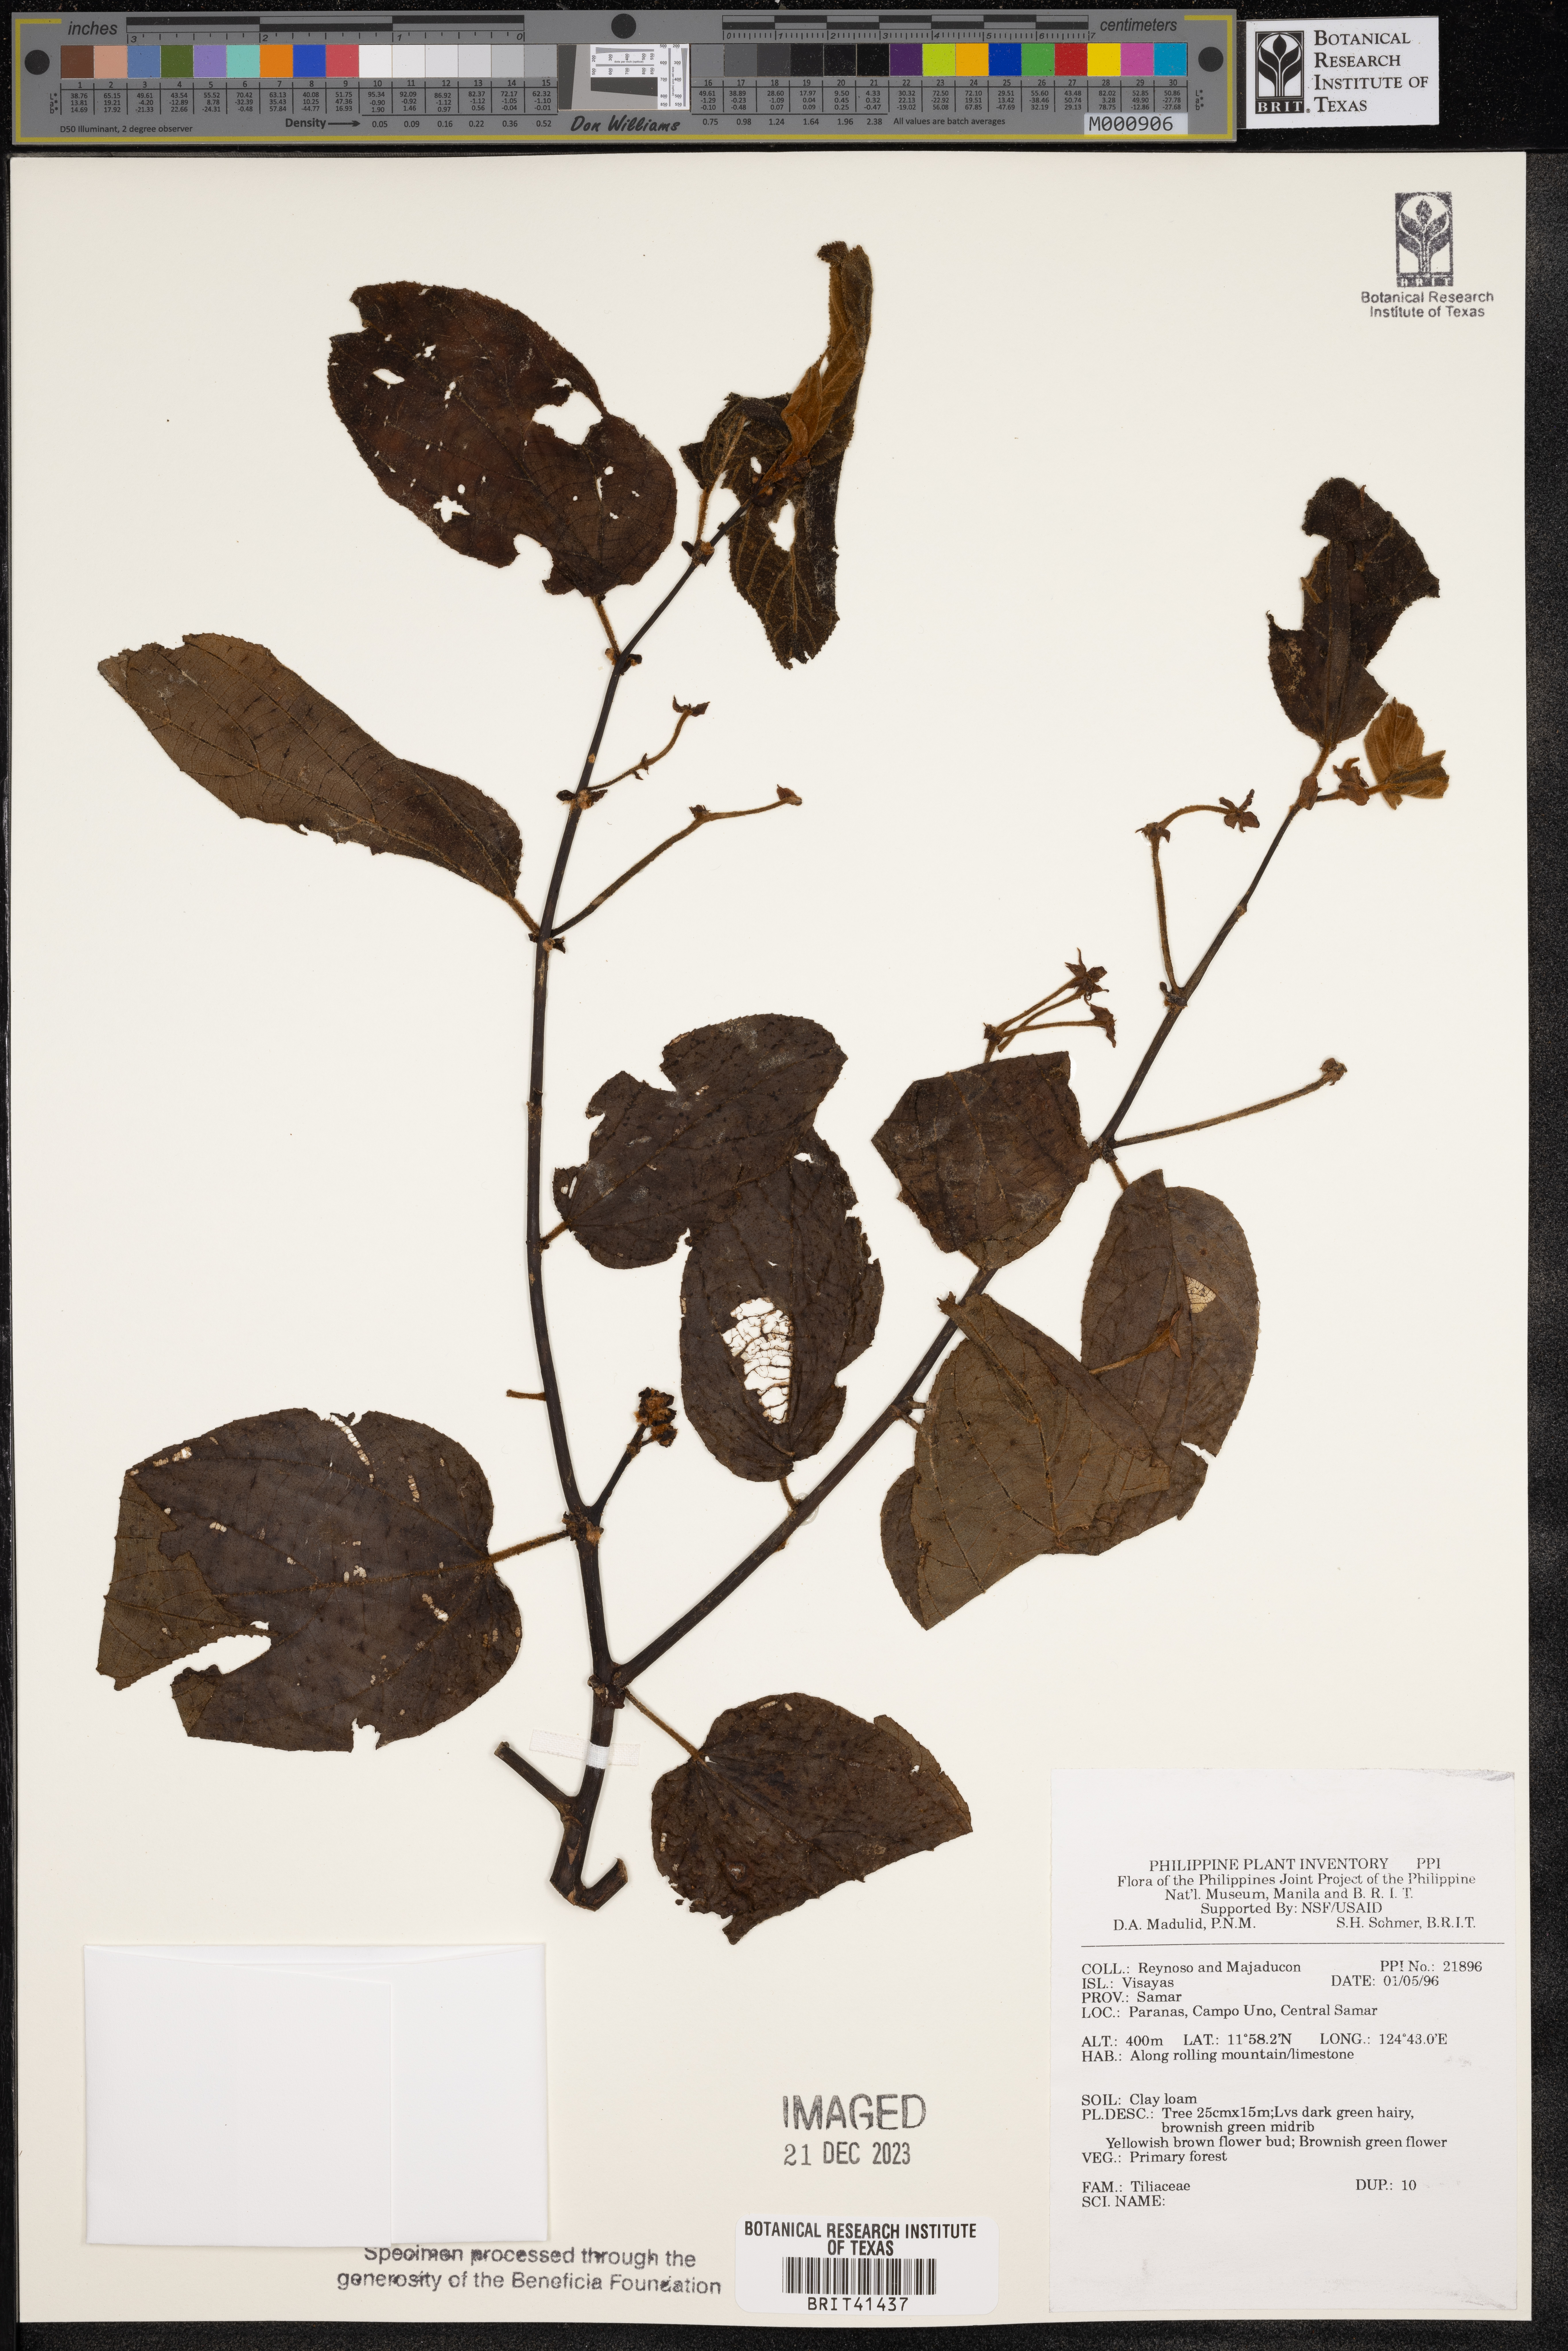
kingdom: Plantae
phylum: Tracheophyta
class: Magnoliopsida
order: Malvales
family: Tiliaceae
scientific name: Tiliaceae
